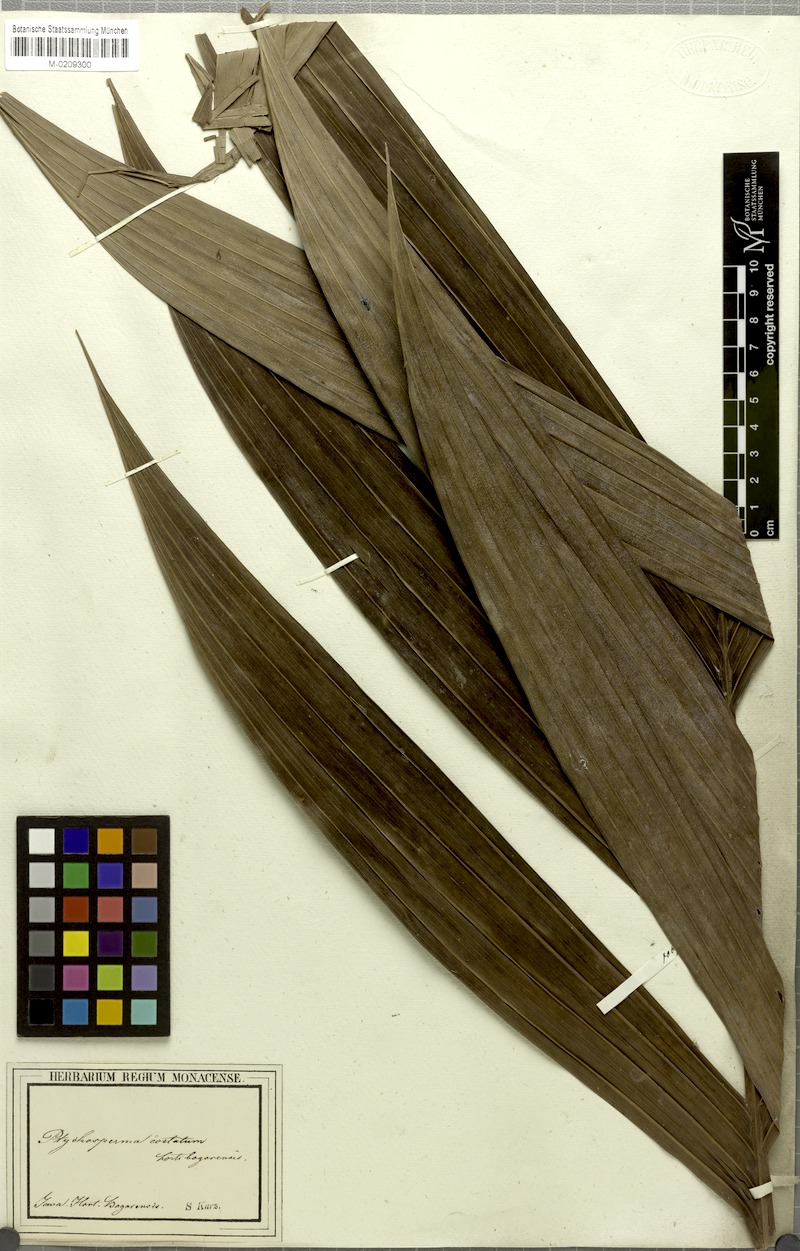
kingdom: Plantae
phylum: Tracheophyta
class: Liliopsida
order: Arecales
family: Arecaceae
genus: Pinanga
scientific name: Pinanga coronata
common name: Ivory cane palm
